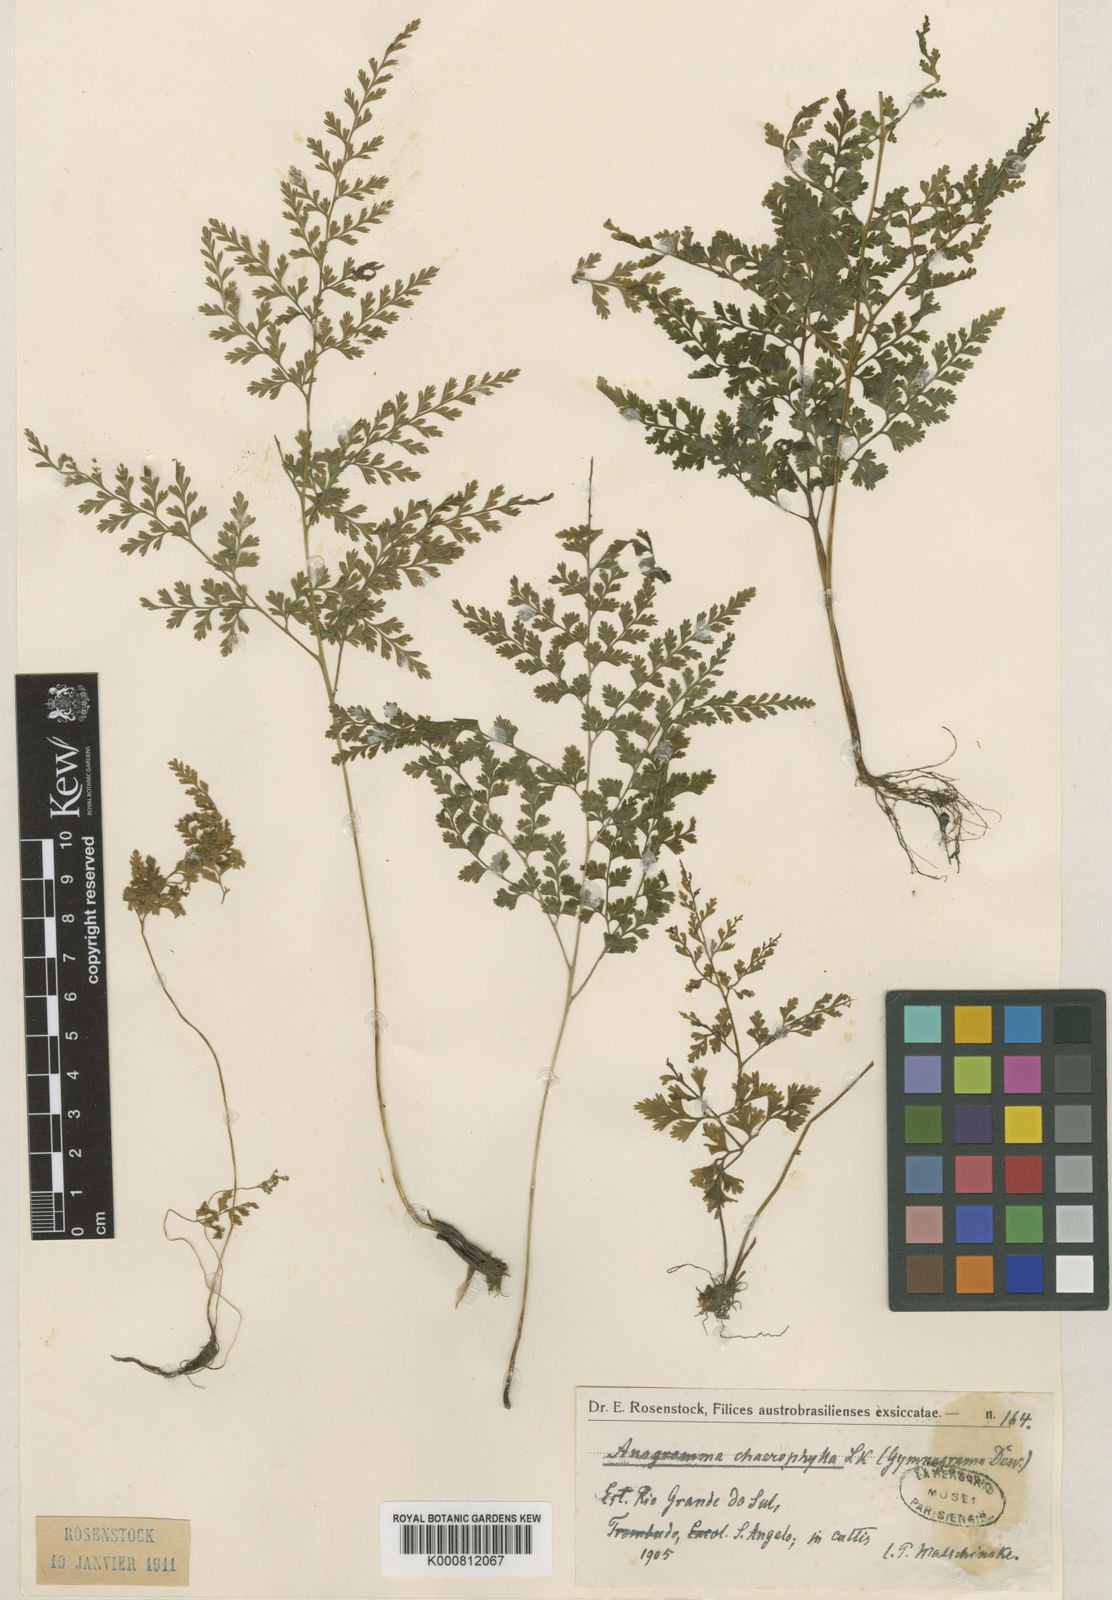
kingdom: Plantae
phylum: Tracheophyta
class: Polypodiopsida
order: Polypodiales
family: Pteridaceae
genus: Gastoniella
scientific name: Gastoniella chaerophylla
